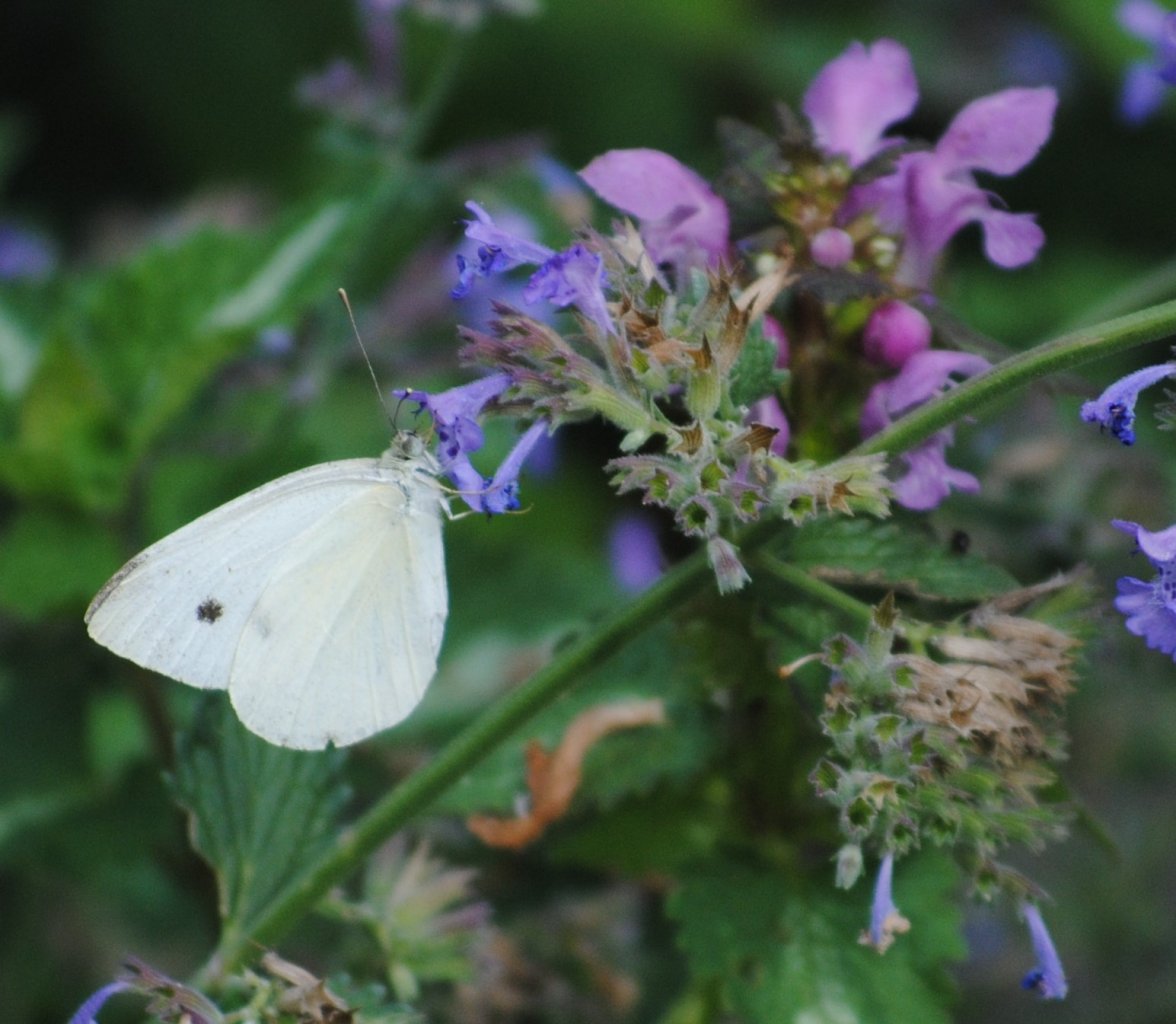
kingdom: Animalia
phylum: Arthropoda
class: Insecta
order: Lepidoptera
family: Pieridae
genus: Pieris
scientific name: Pieris rapae
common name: Cabbage White
